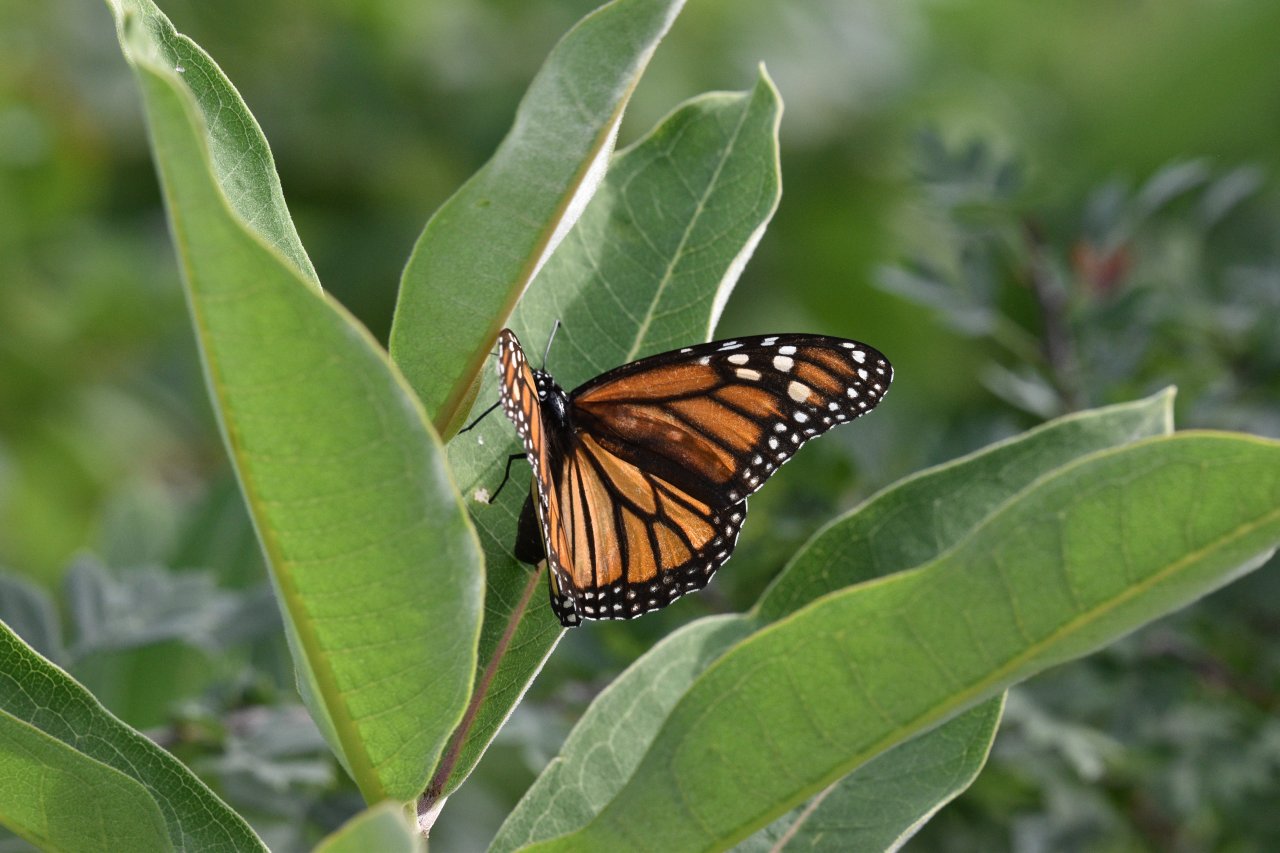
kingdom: Animalia
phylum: Arthropoda
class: Insecta
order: Lepidoptera
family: Nymphalidae
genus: Danaus
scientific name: Danaus plexippus
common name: Monarch
